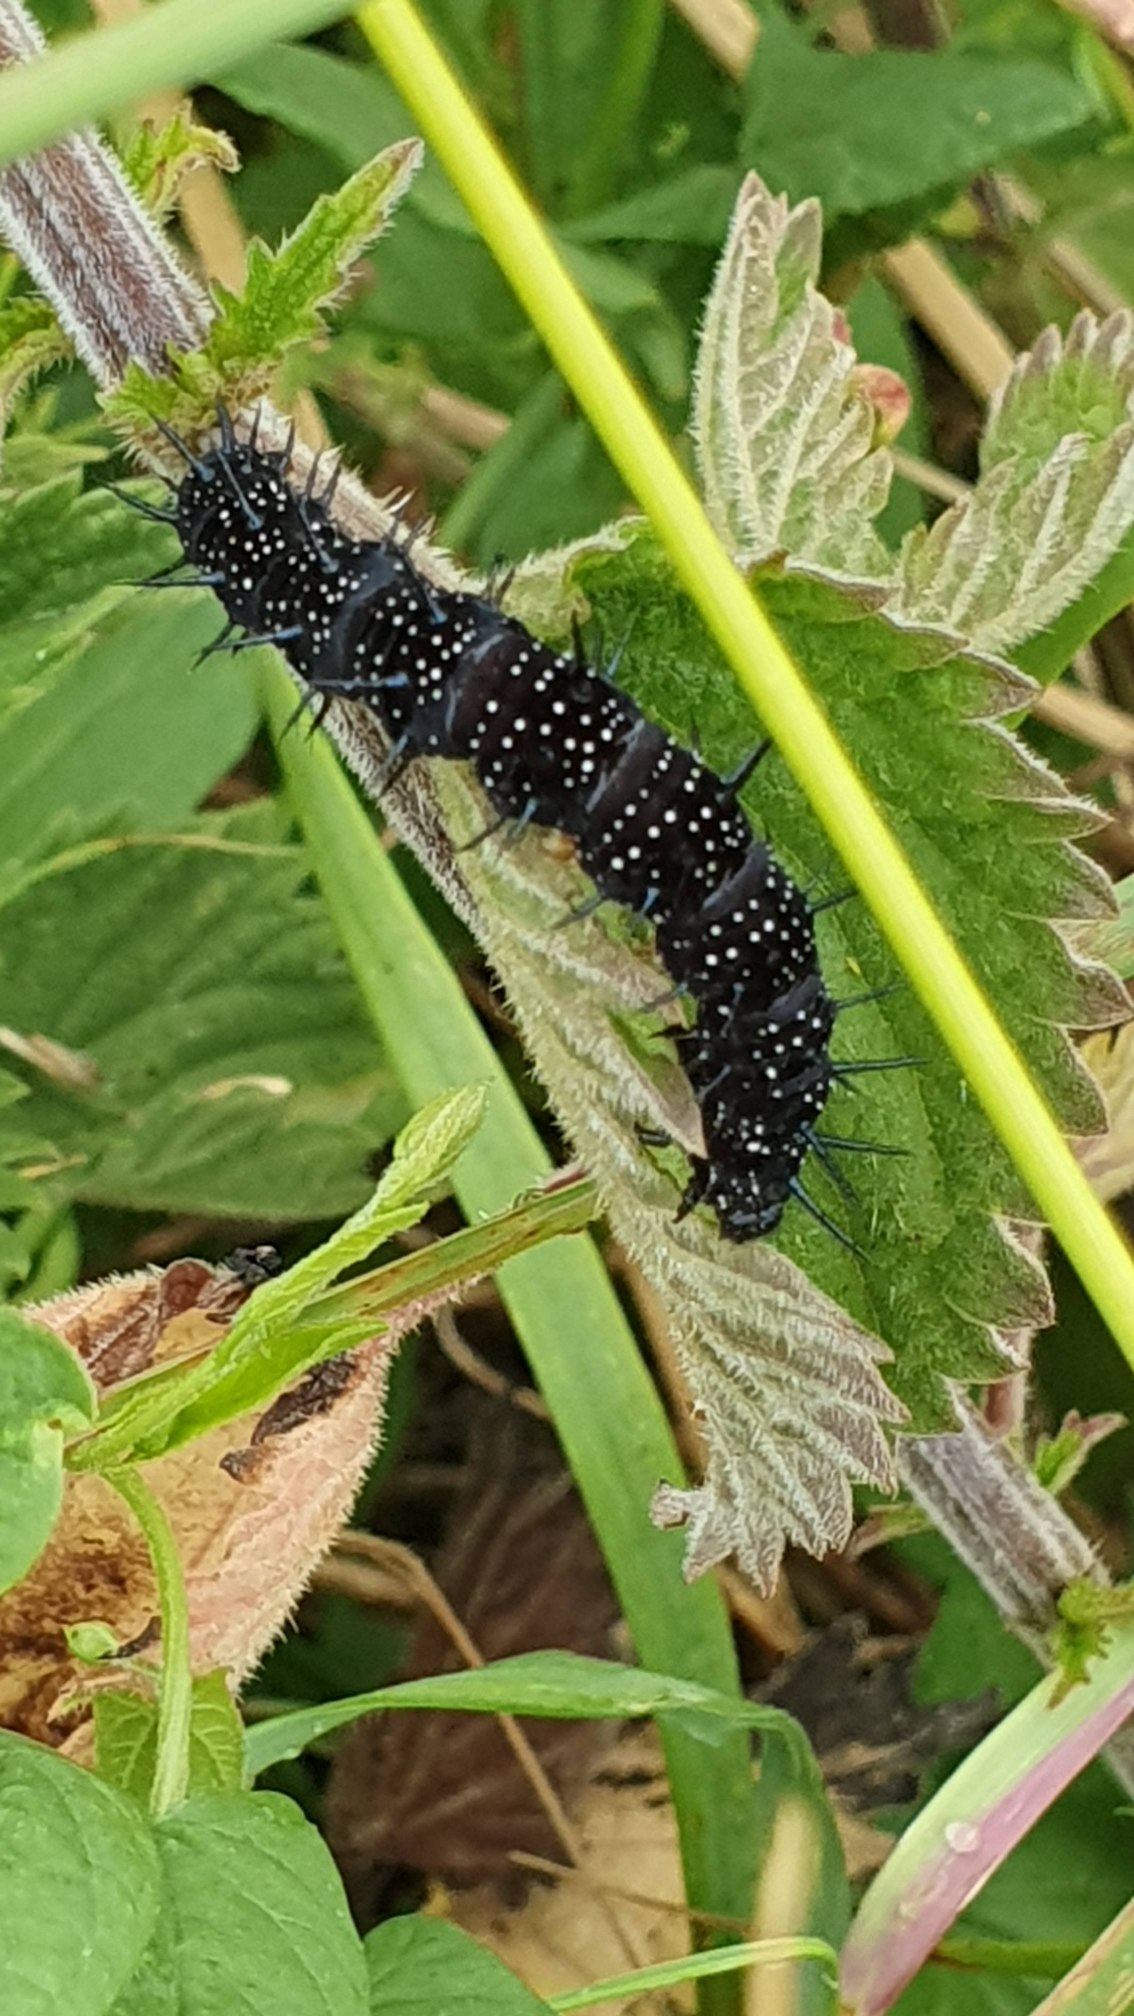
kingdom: Animalia
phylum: Arthropoda
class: Insecta
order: Lepidoptera
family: Nymphalidae
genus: Aglais
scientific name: Aglais io
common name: Dagpåfugleøje
